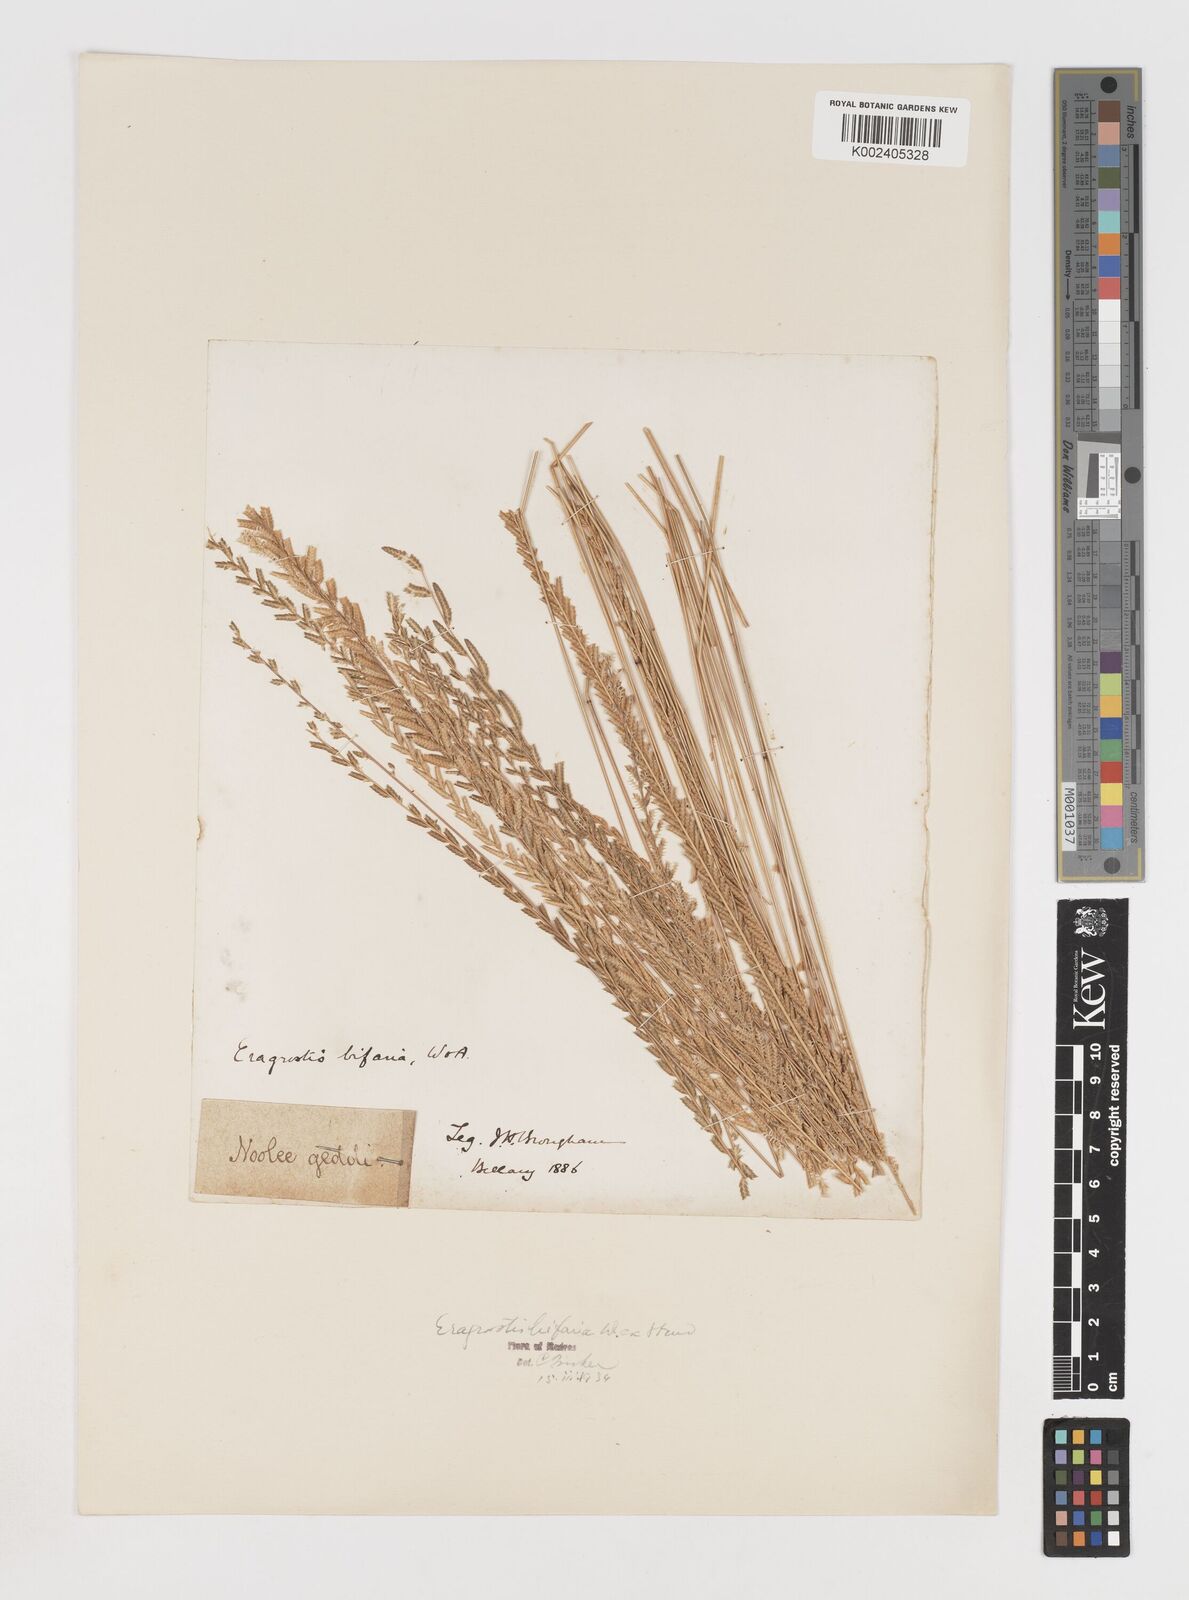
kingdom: Plantae
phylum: Tracheophyta
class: Liliopsida
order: Poales
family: Poaceae
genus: Eragrostiella
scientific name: Eragrostiella bifaria
